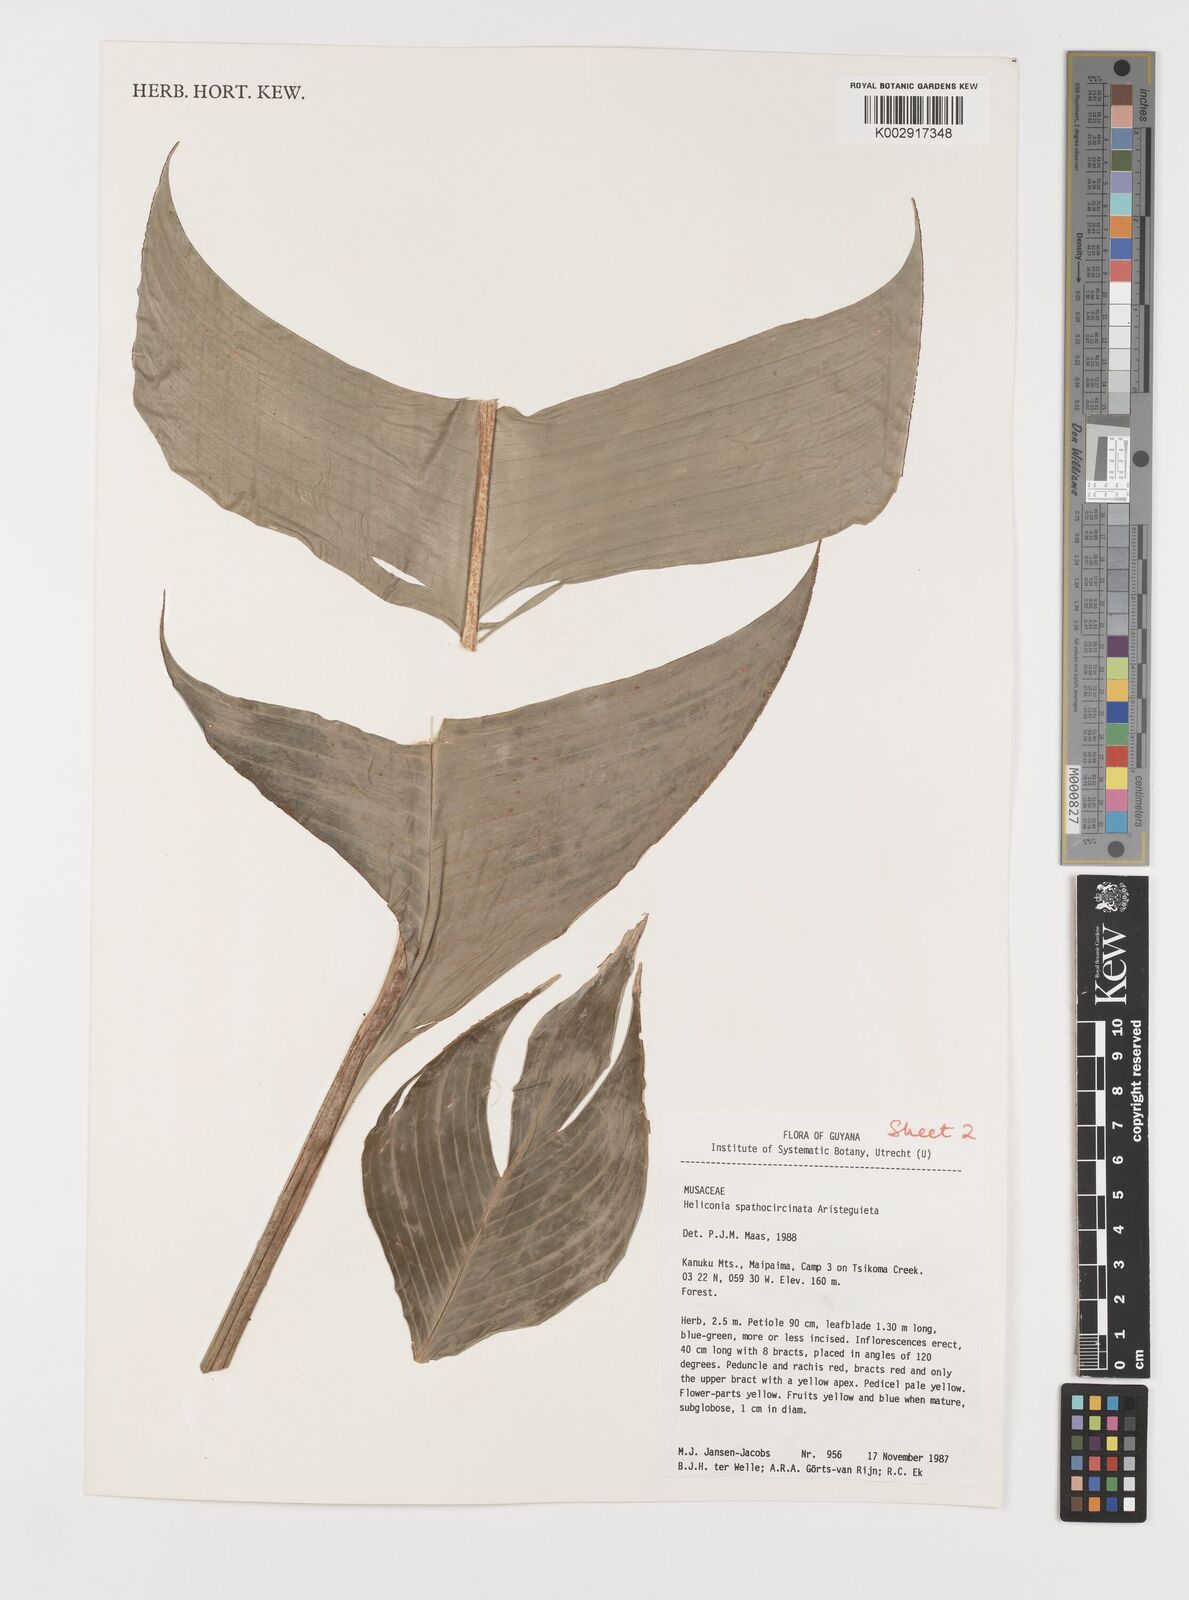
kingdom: Plantae
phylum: Tracheophyta
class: Liliopsida
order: Zingiberales
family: Heliconiaceae
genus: Heliconia
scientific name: Heliconia spathocircinata
